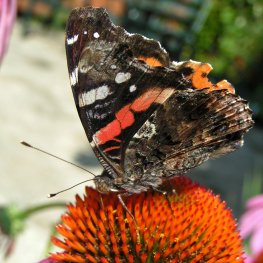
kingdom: Animalia
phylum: Arthropoda
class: Insecta
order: Lepidoptera
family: Nymphalidae
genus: Vanessa
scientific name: Vanessa atalanta
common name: Red Admiral
